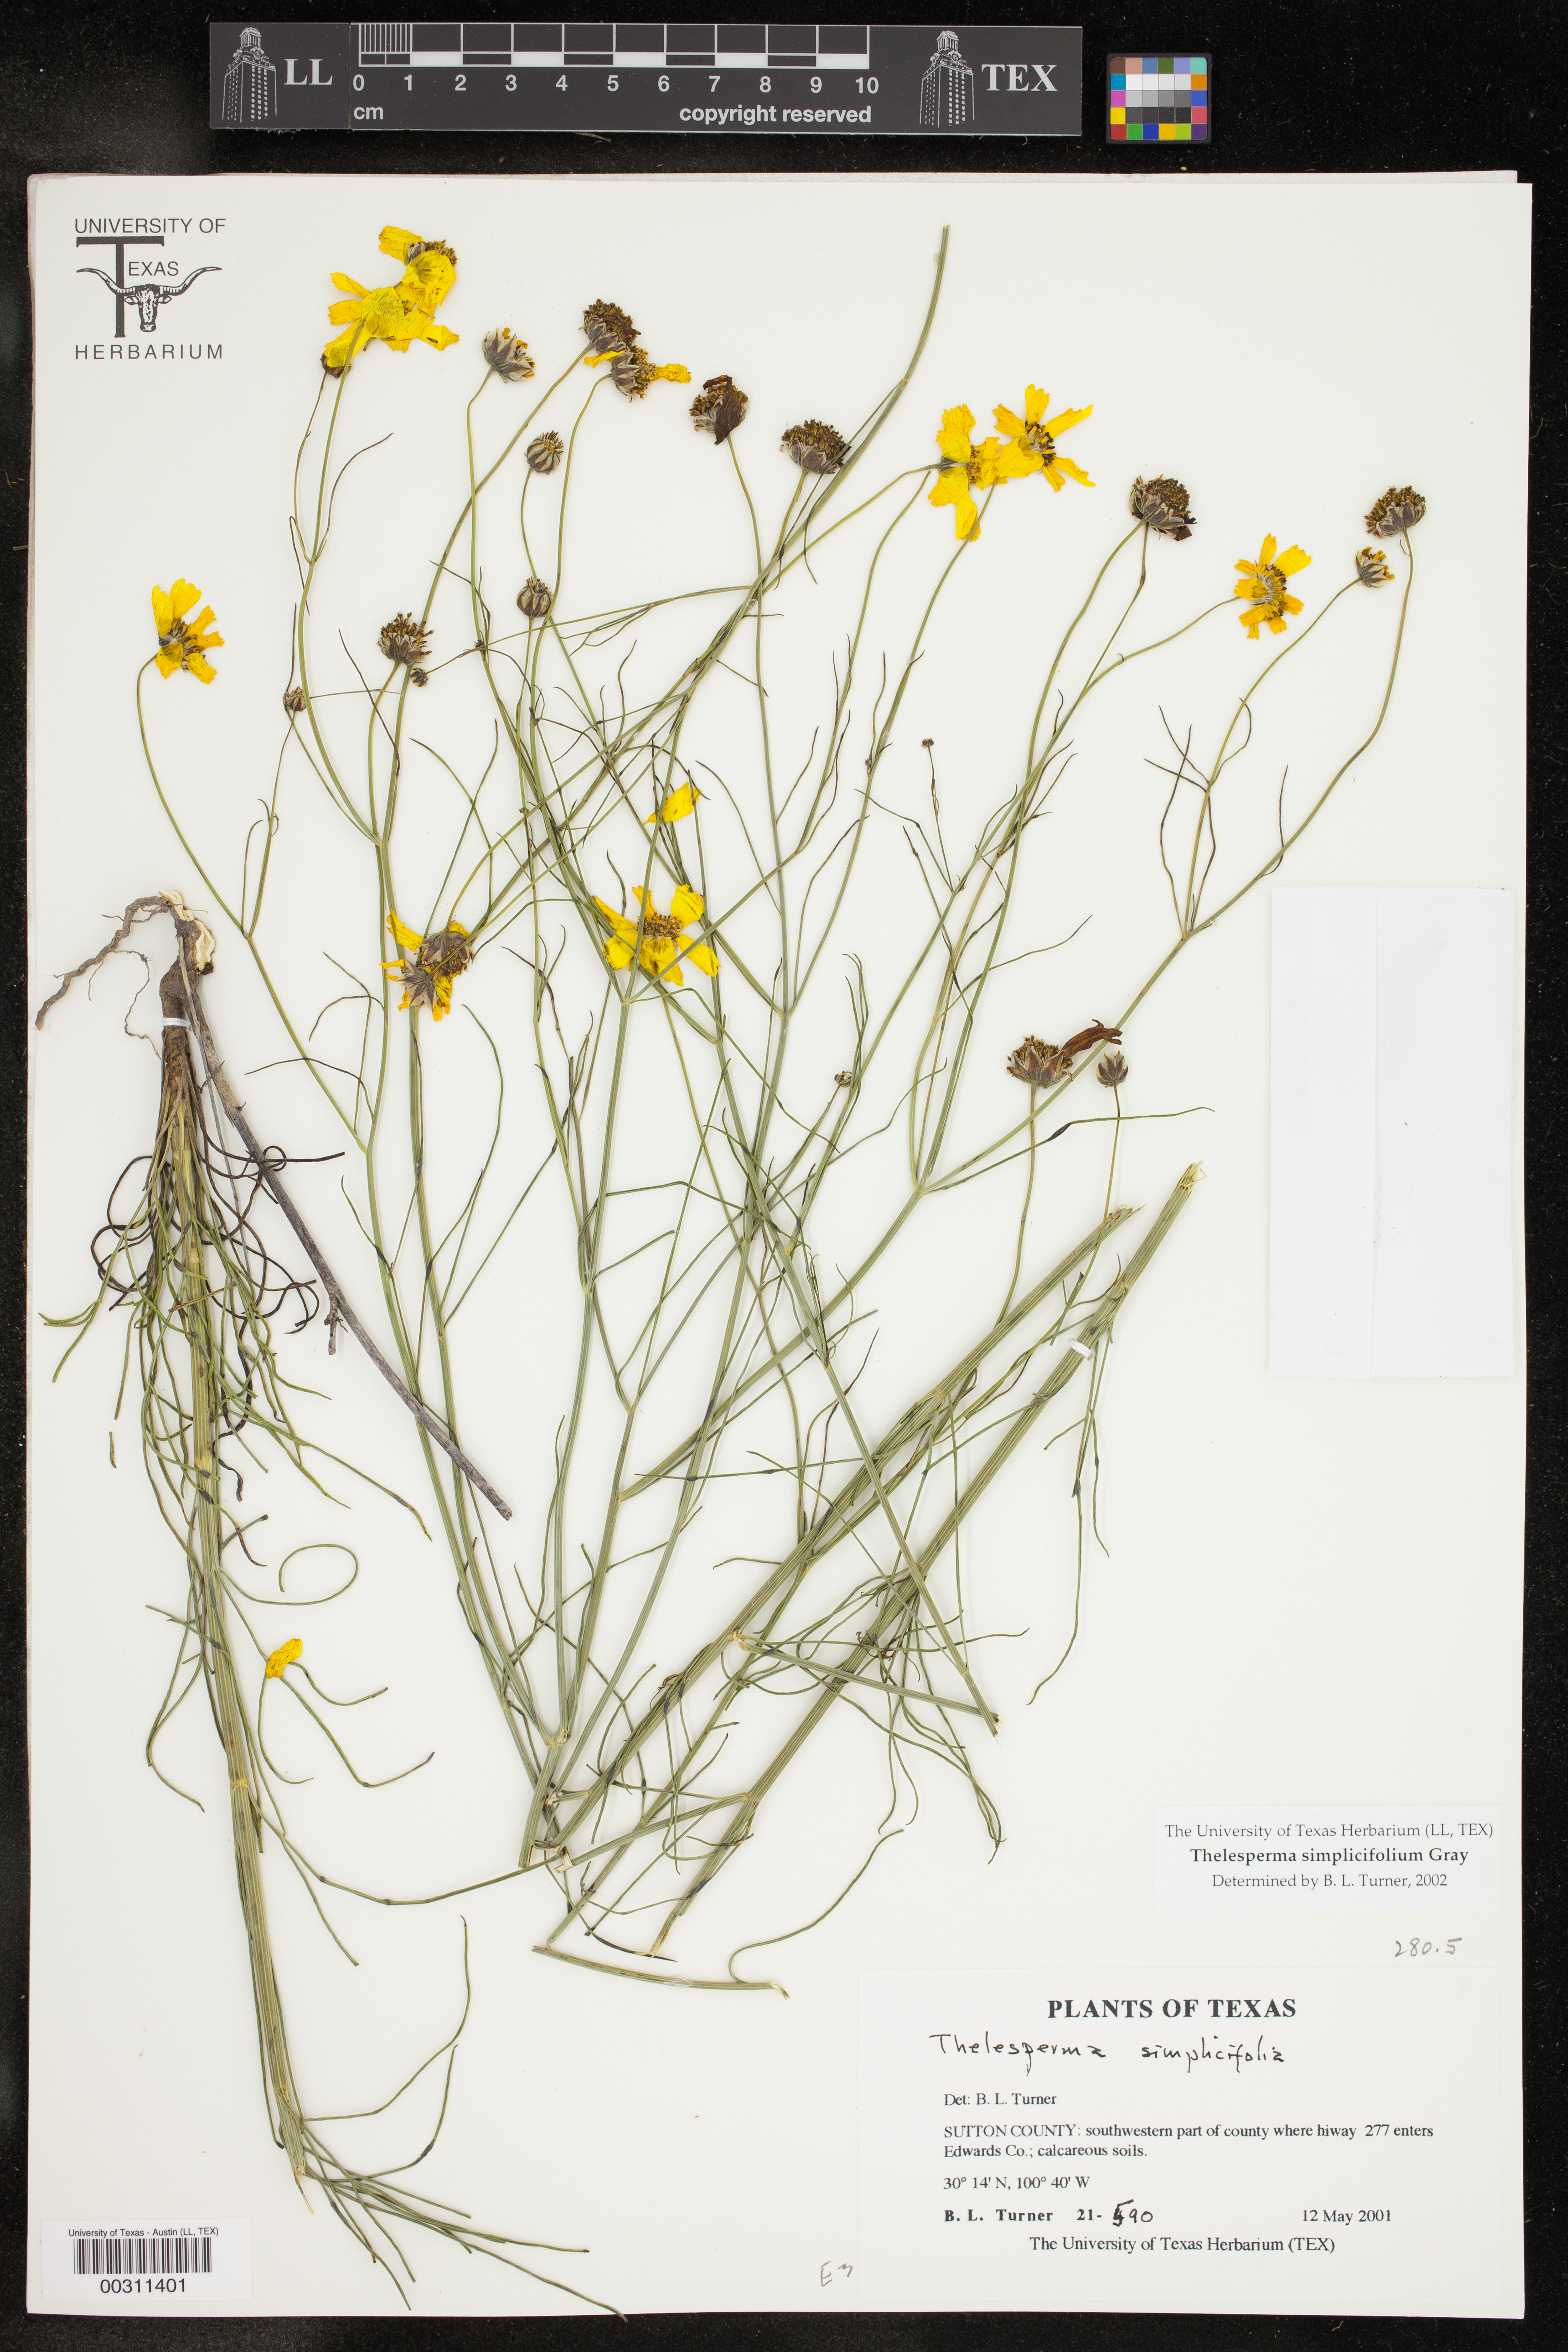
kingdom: Plantae
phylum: Tracheophyta
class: Magnoliopsida
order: Asterales
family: Asteraceae
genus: Thelesperma
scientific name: Thelesperma simplicifolium
